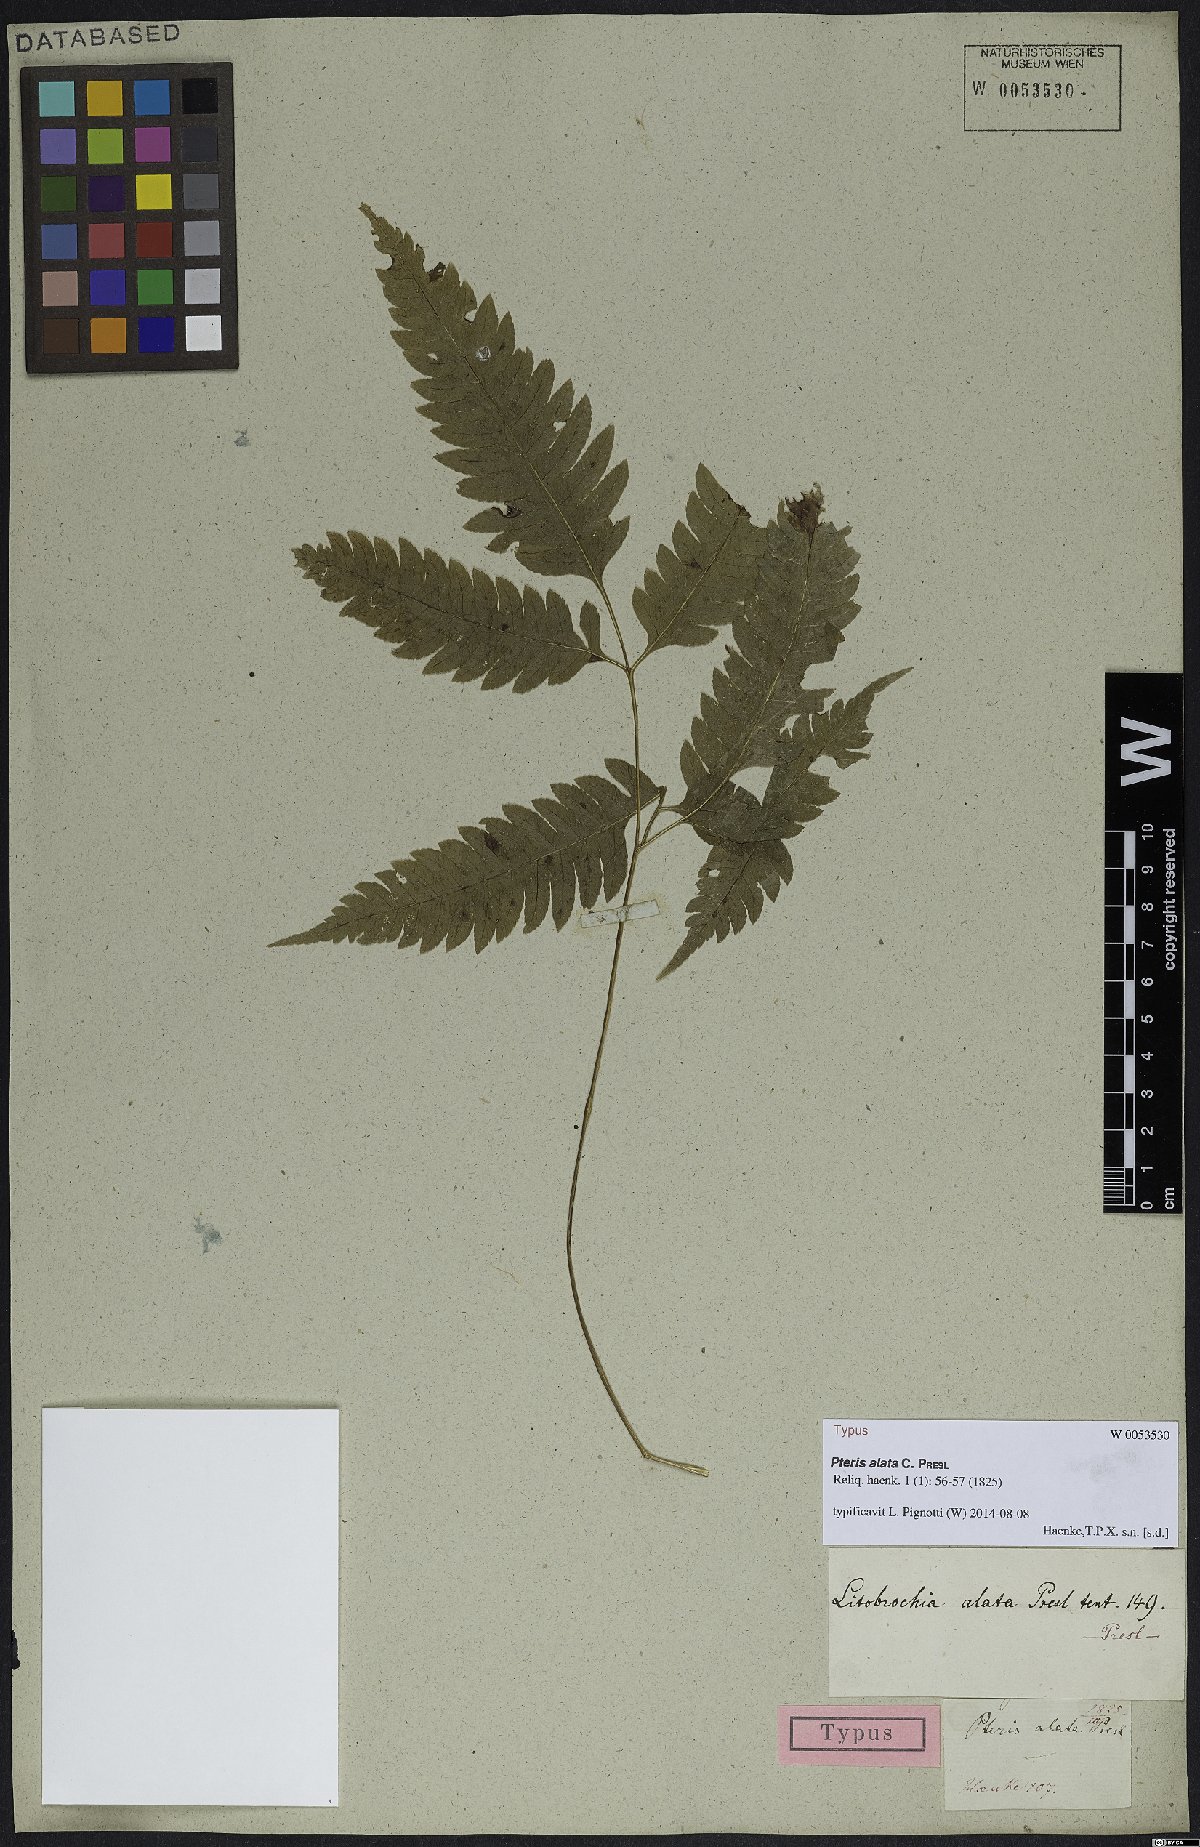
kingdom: Plantae
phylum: Tracheophyta
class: Polypodiopsida
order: Polypodiales
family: Pteridaceae
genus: Pteris
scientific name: Pteris Litobrochia alata
